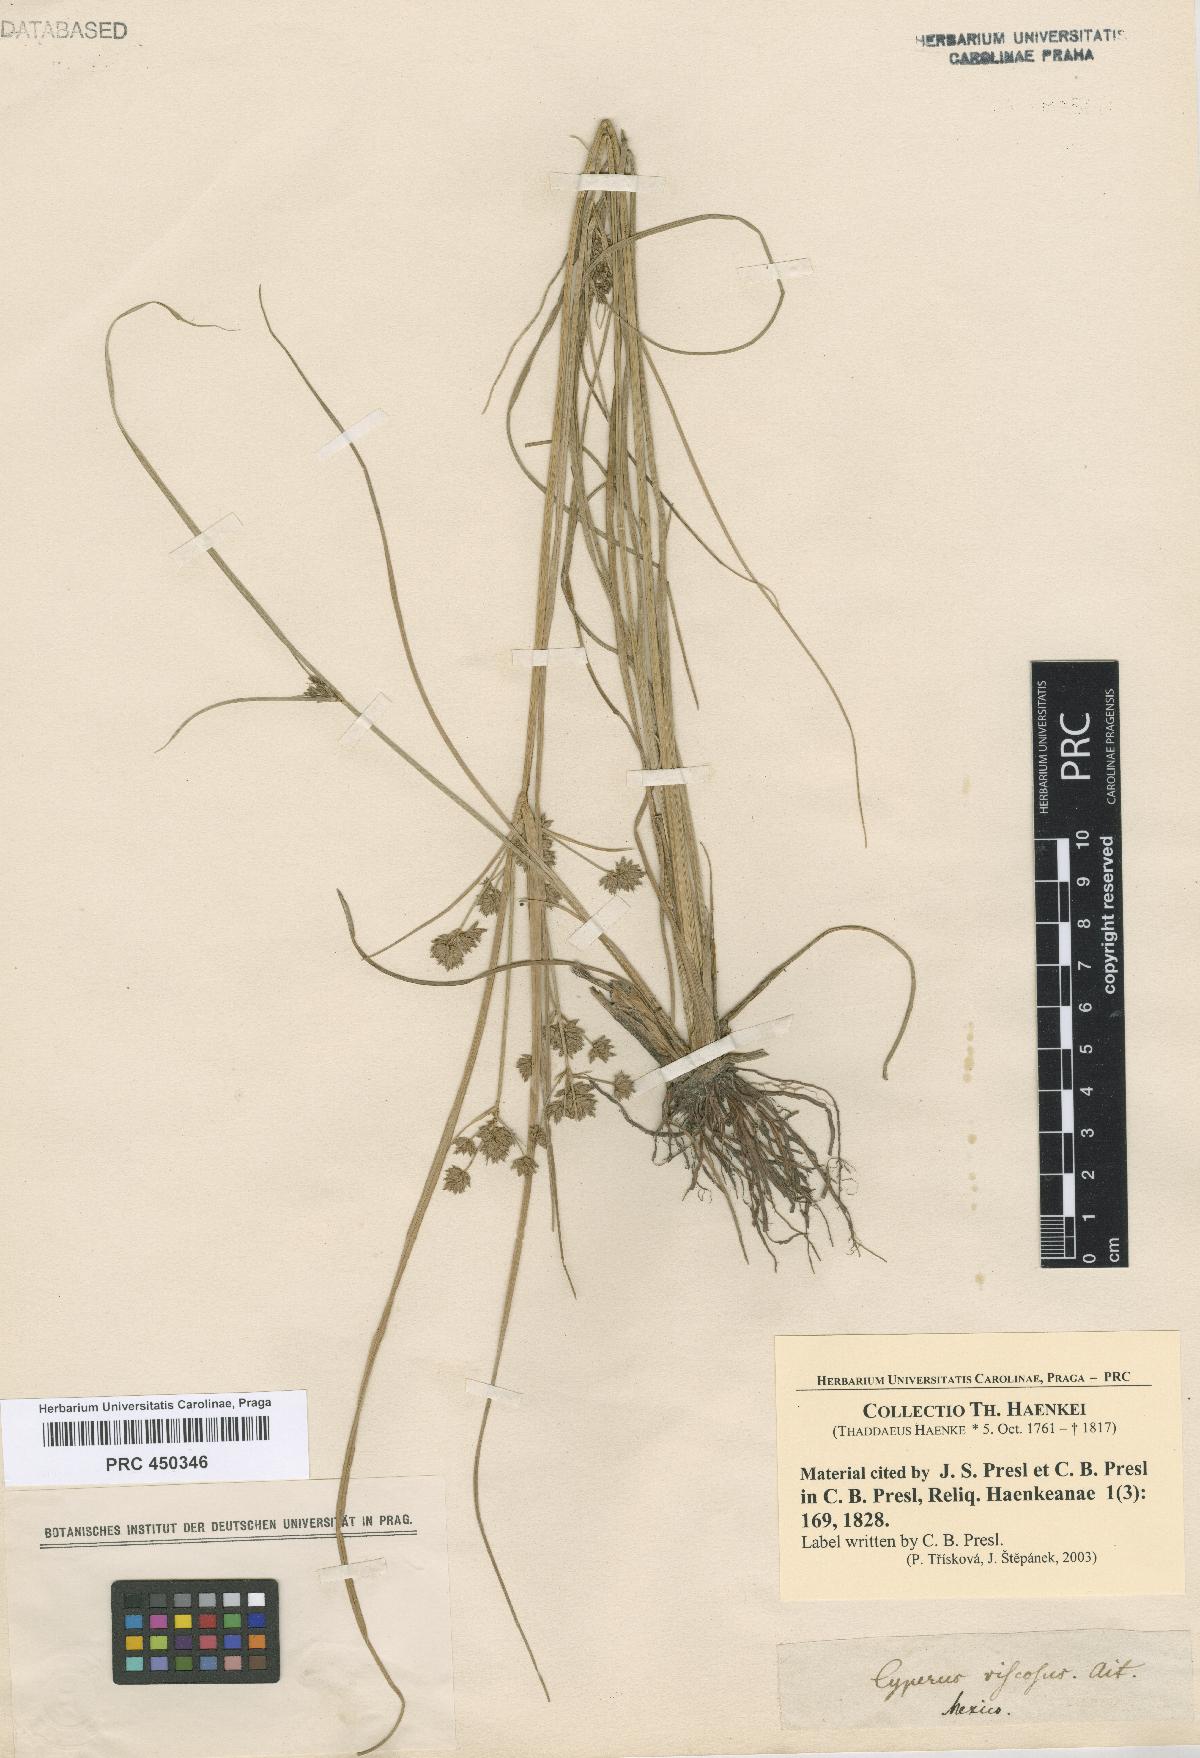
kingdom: Plantae
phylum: Tracheophyta
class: Liliopsida
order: Poales
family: Cyperaceae
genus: Cyperus
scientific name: Cyperus
